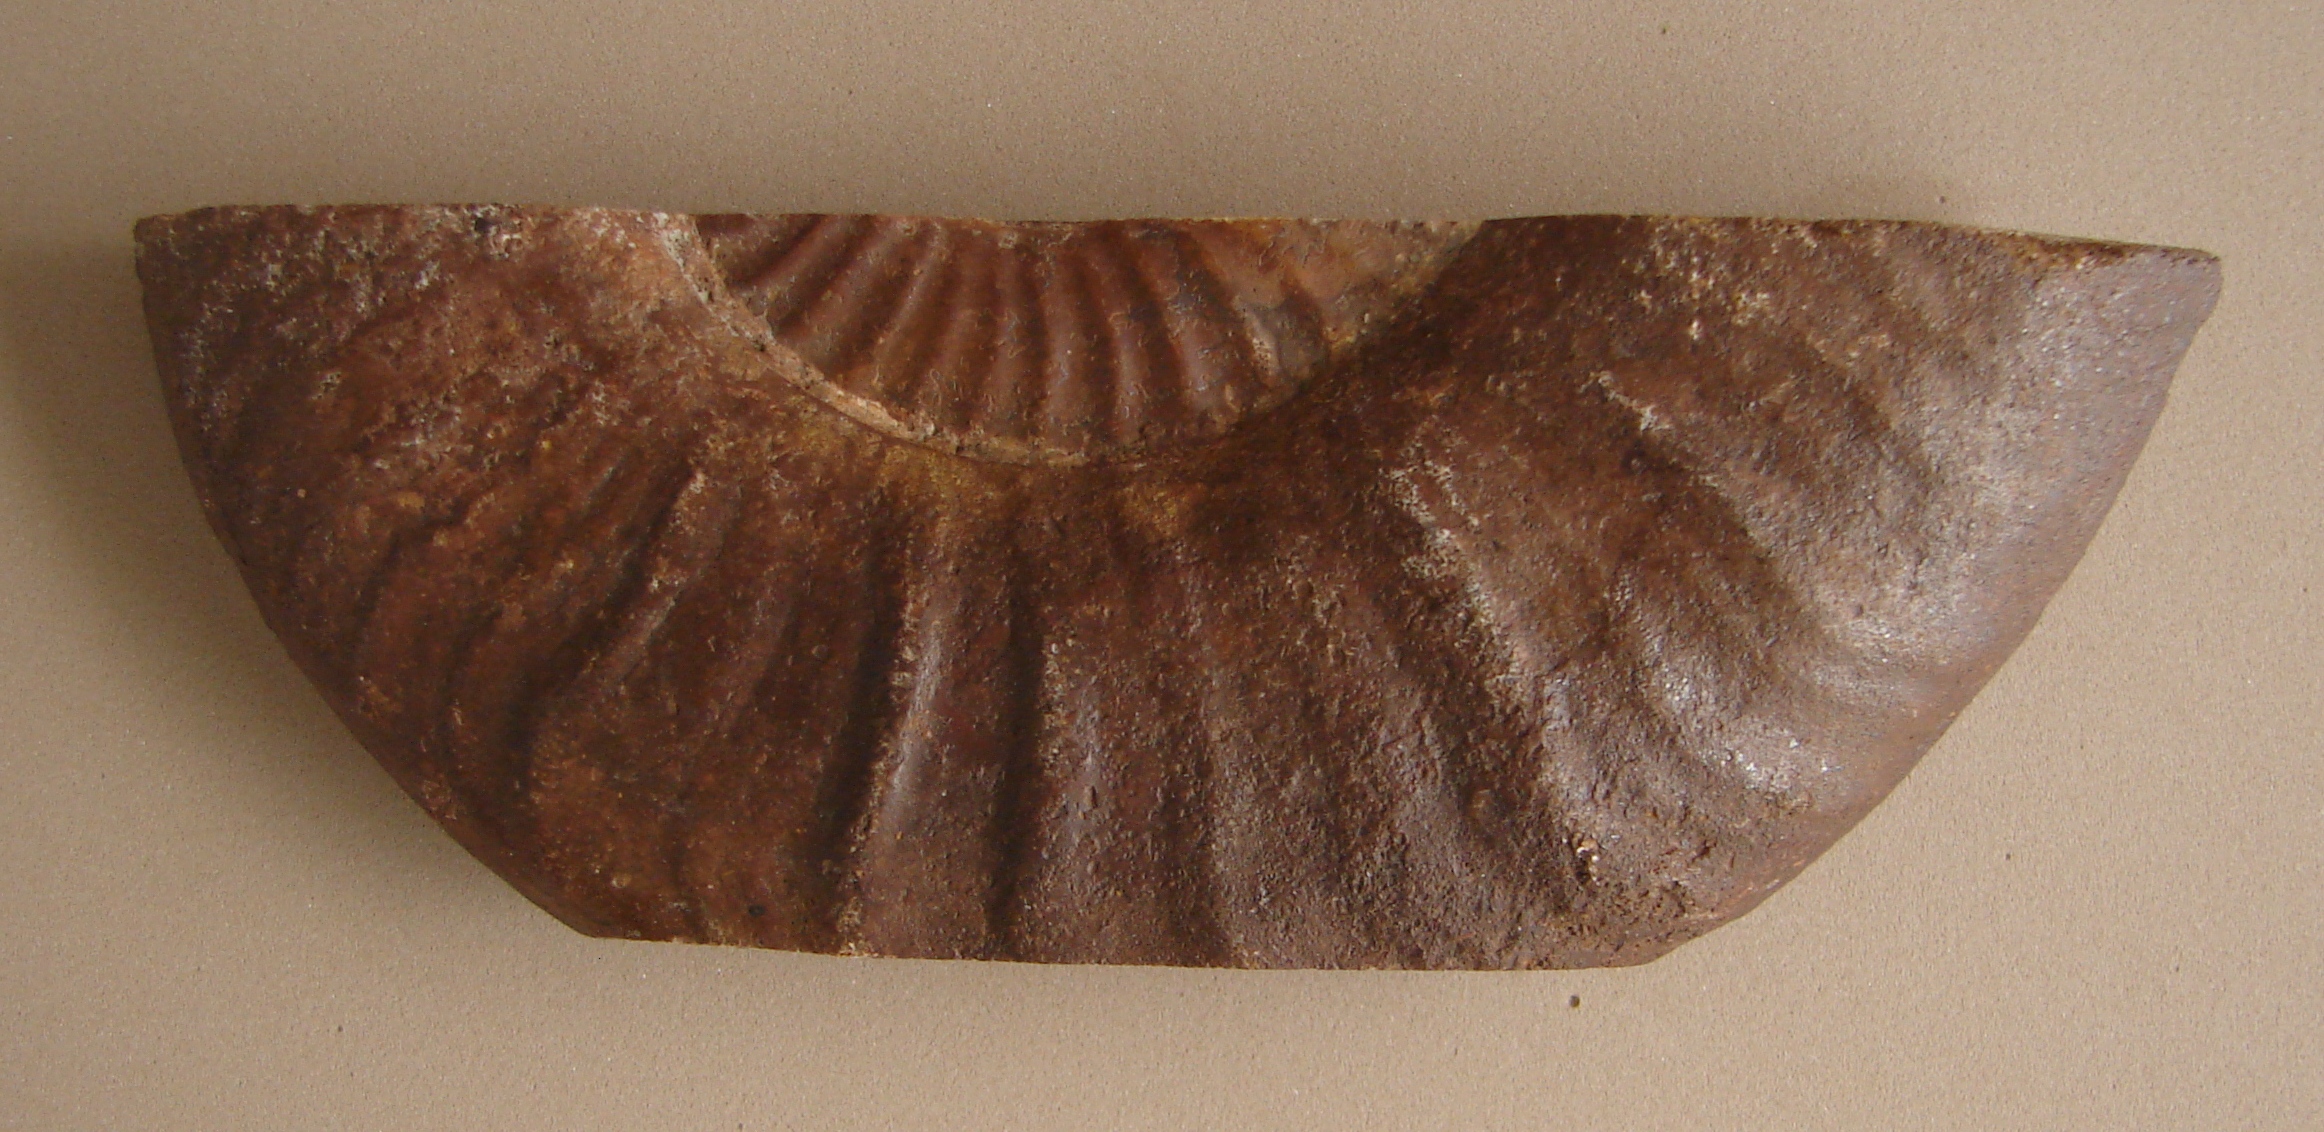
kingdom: Animalia
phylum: Mollusca
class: Cephalopoda
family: Hildoceratidae
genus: Pleydellia
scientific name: Pleydellia
